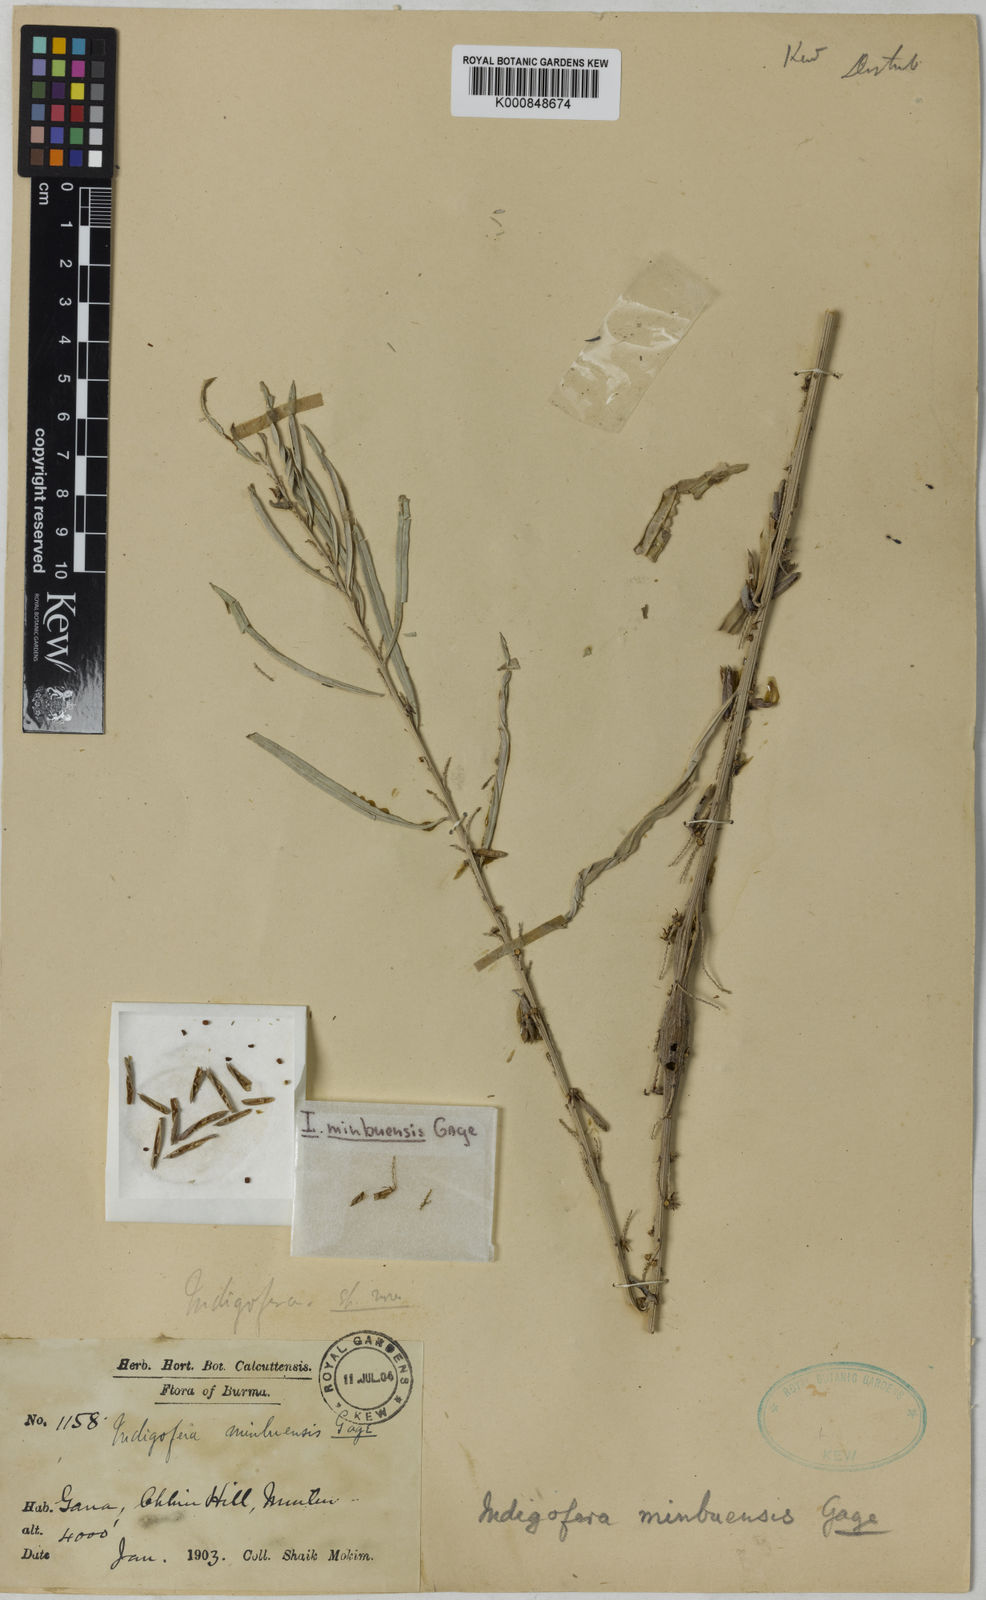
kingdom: Plantae
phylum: Tracheophyta
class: Magnoliopsida
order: Fabales
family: Fabaceae
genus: Indigofera
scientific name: Indigofera minbuensis
